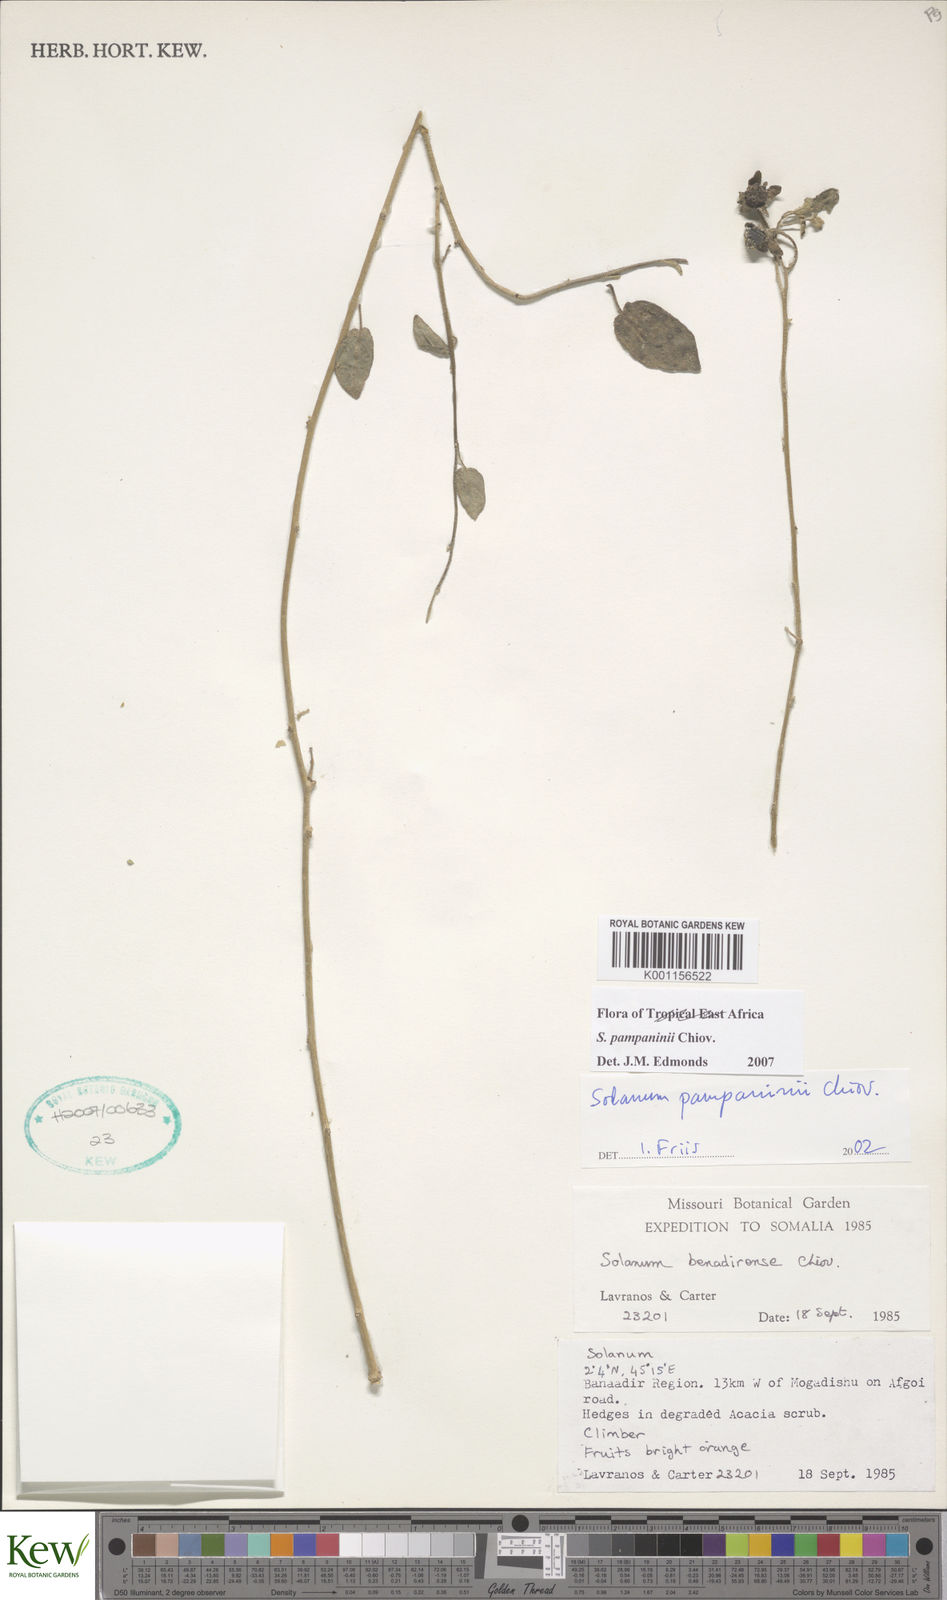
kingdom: Plantae
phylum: Tracheophyta
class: Magnoliopsida
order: Solanales
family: Solanaceae
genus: Solanum
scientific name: Solanum pampaninii
